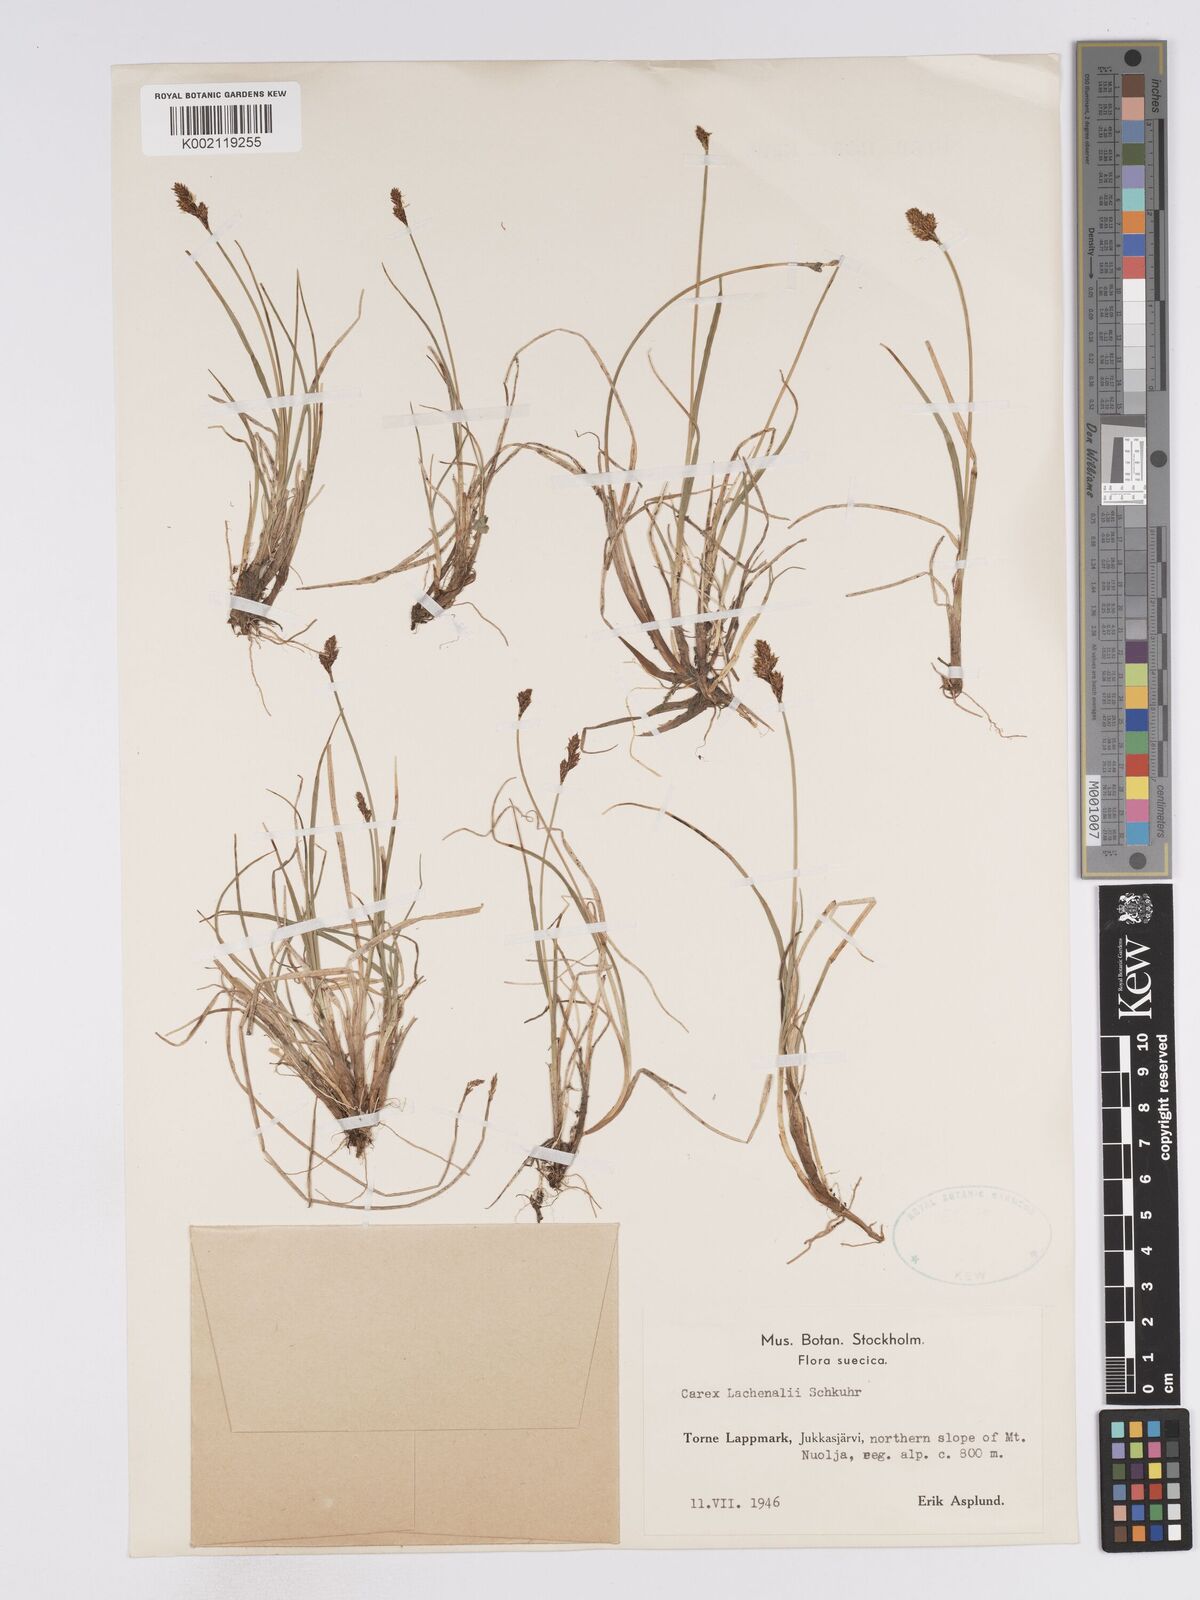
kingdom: Plantae
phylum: Tracheophyta
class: Liliopsida
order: Poales
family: Cyperaceae
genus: Carex
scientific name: Carex lachenalii
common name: Hare's-foot sedge
